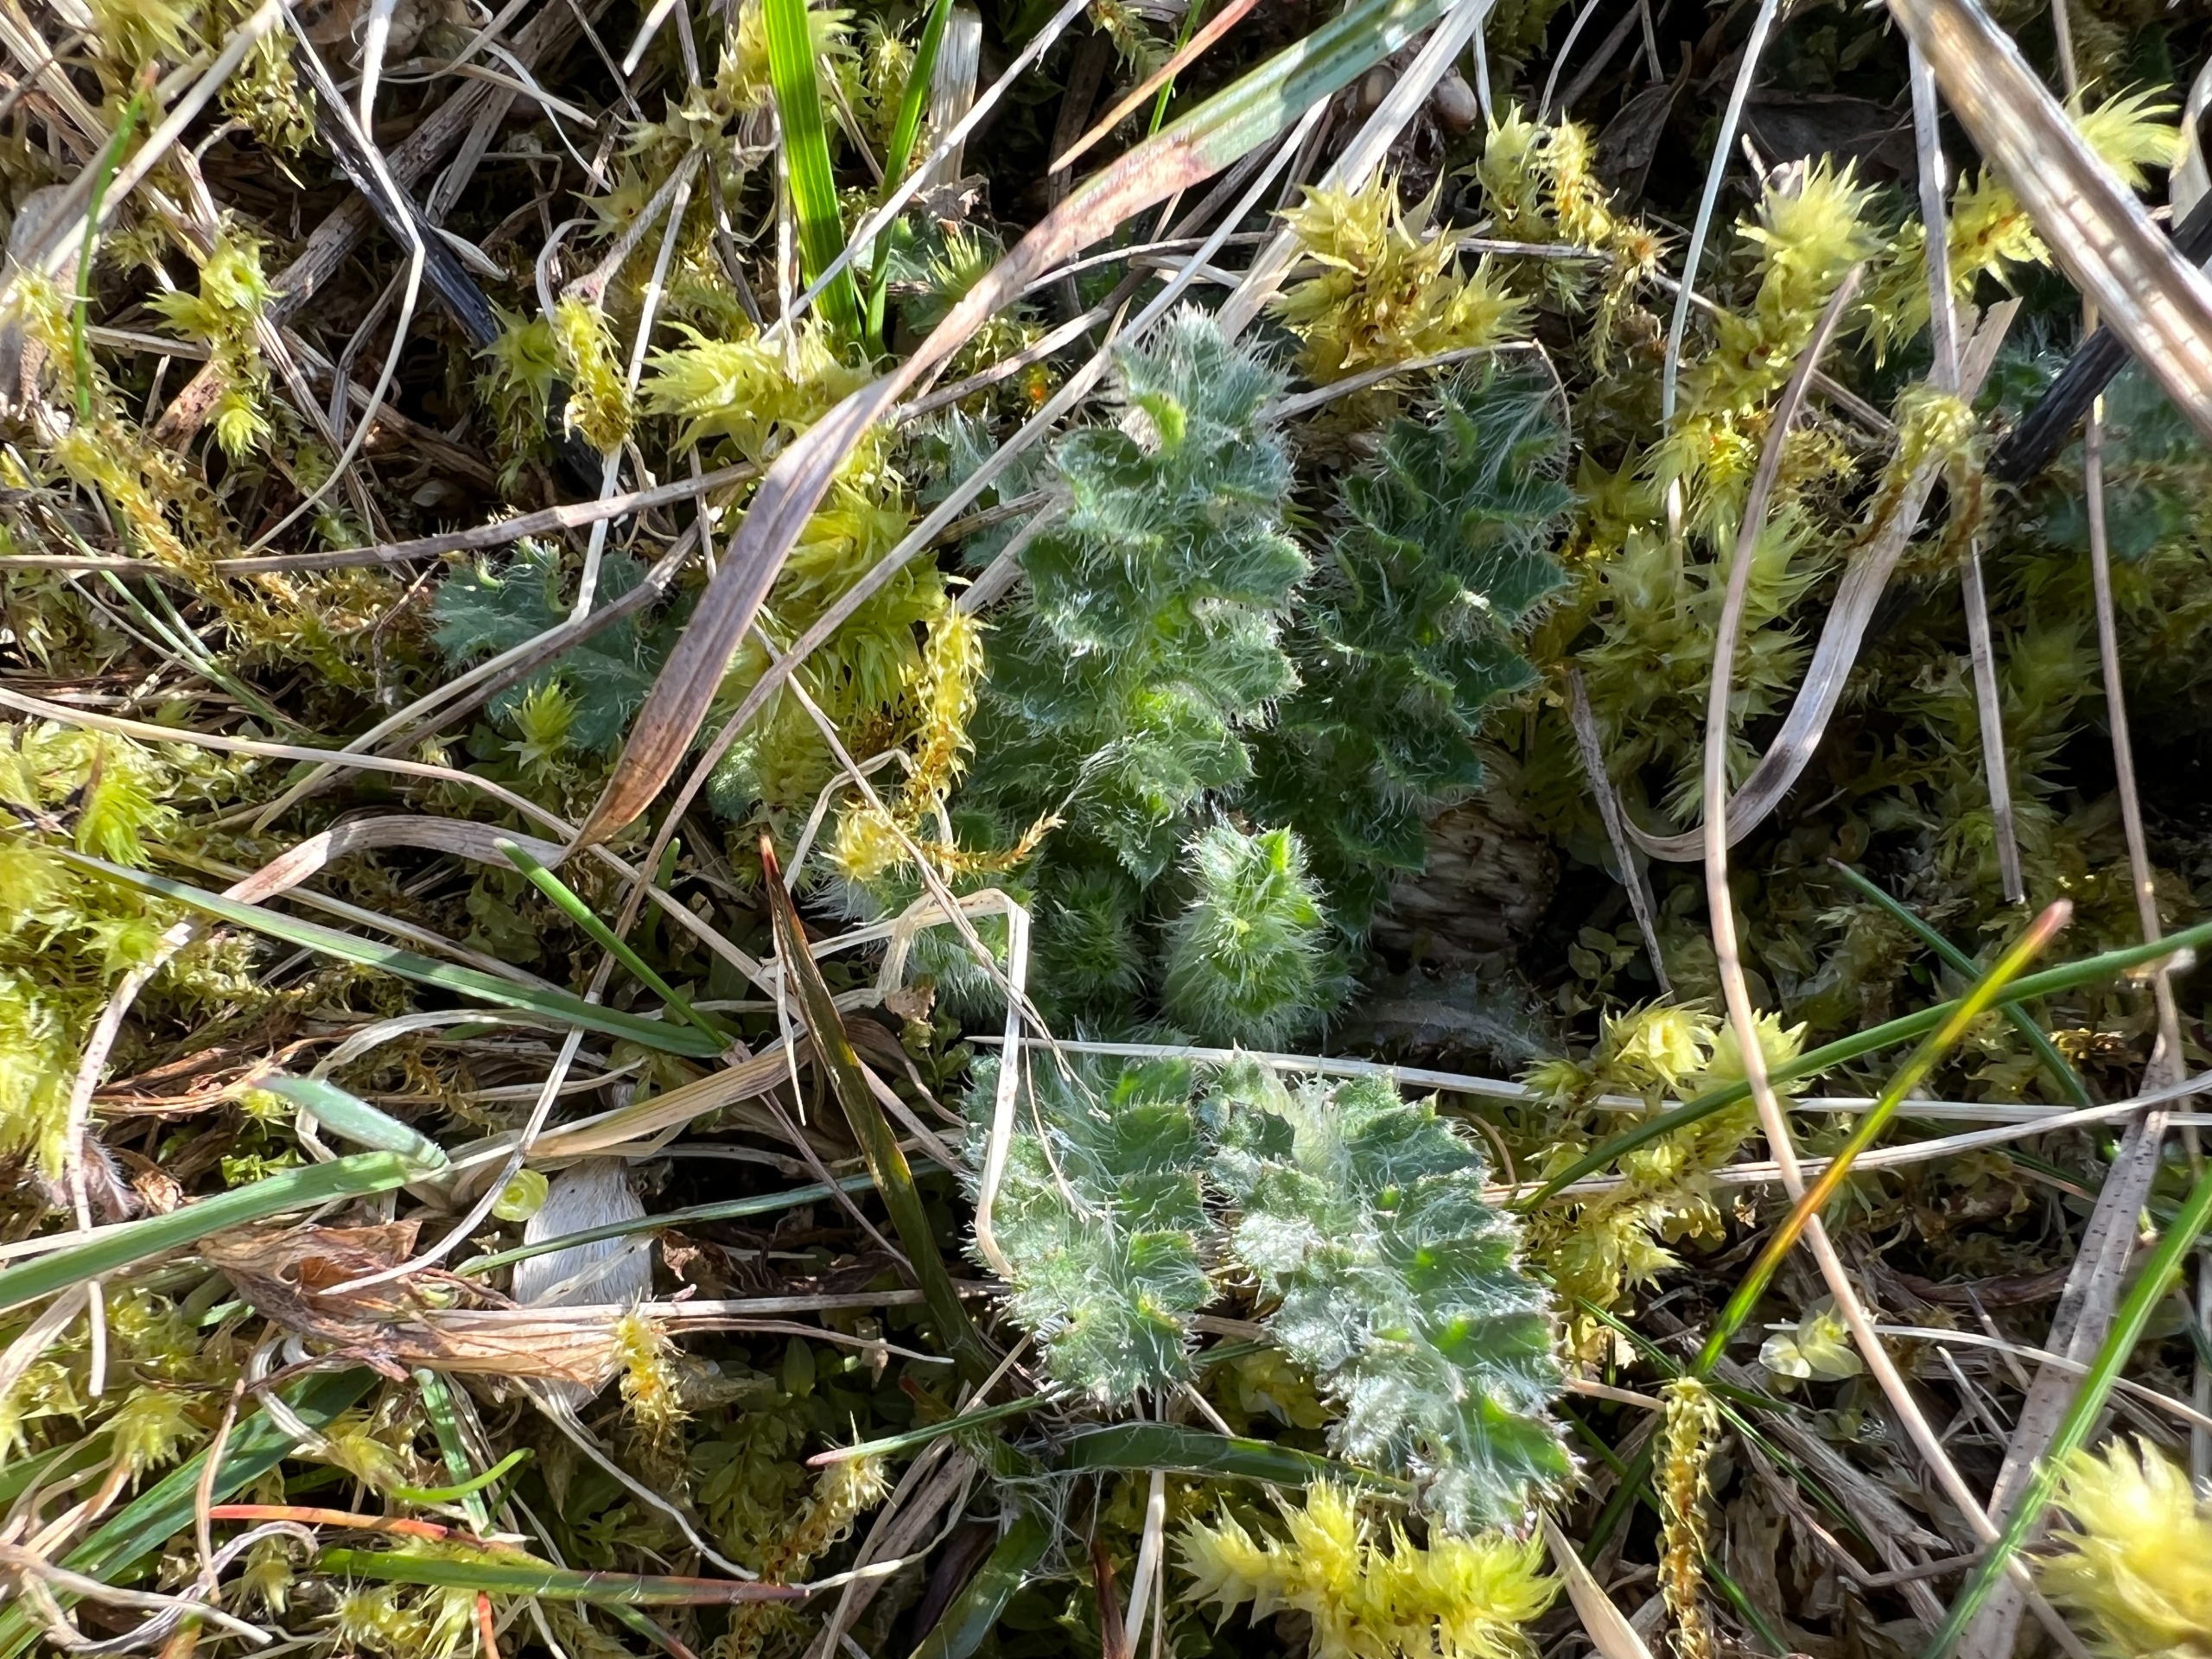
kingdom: Plantae
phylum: Tracheophyta
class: Magnoliopsida
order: Asterales
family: Asteraceae
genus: Cirsium
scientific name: Cirsium acaule
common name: Lav tidsel
